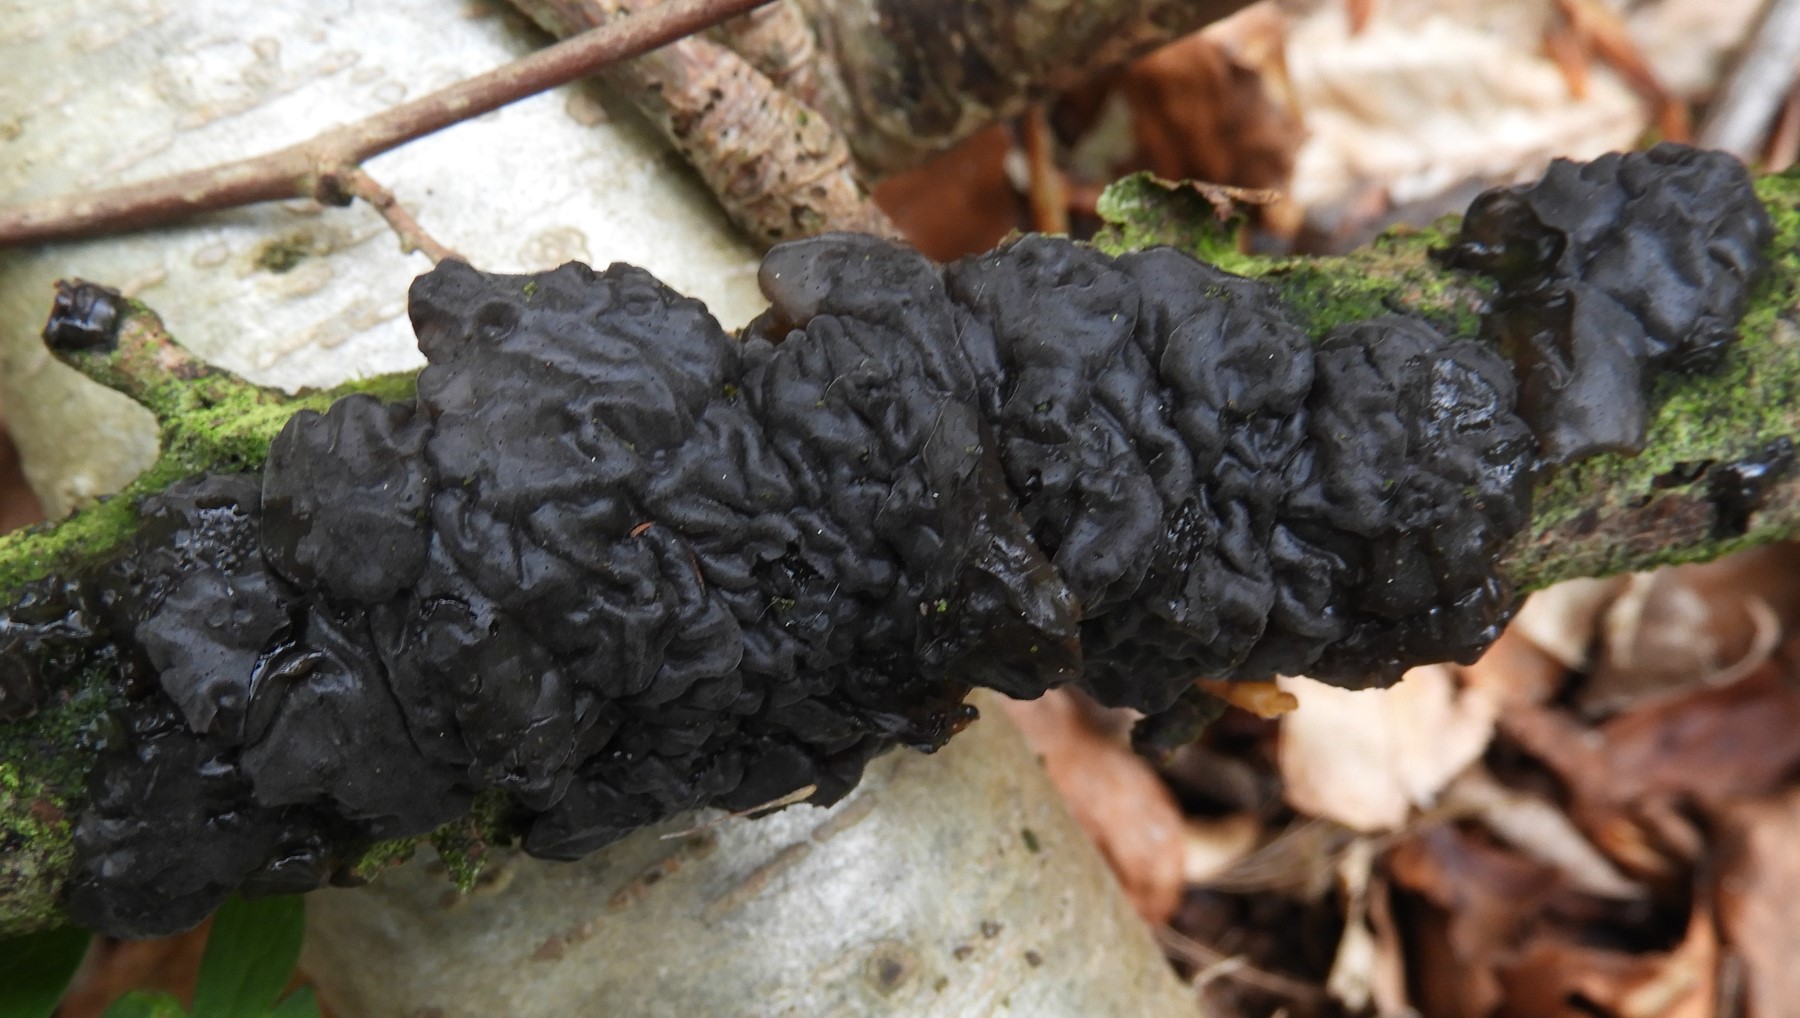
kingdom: Fungi
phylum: Basidiomycota
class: Agaricomycetes
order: Auriculariales
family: Auriculariaceae
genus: Exidia
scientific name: Exidia nigricans
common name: almindelig bævretop
